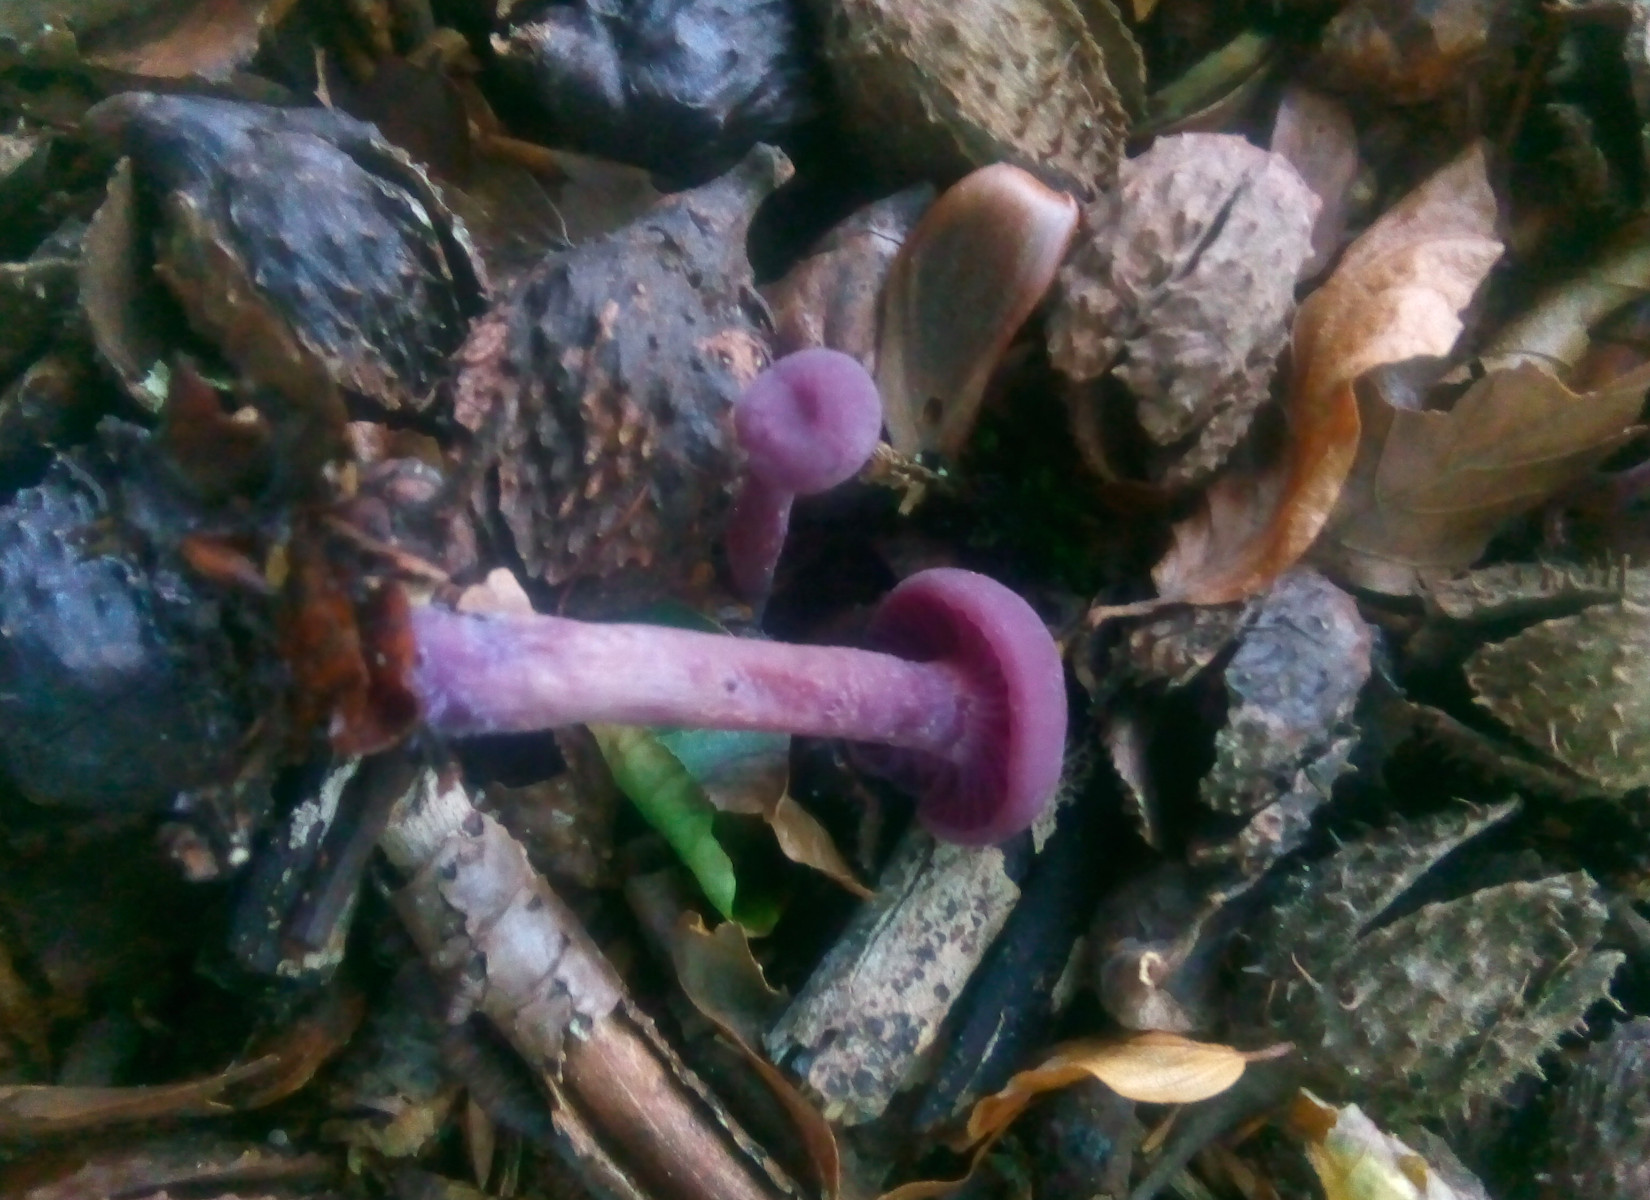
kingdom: Fungi
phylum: Basidiomycota
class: Agaricomycetes
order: Agaricales
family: Hydnangiaceae
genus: Laccaria
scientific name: Laccaria amethystina
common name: violet ametysthat
